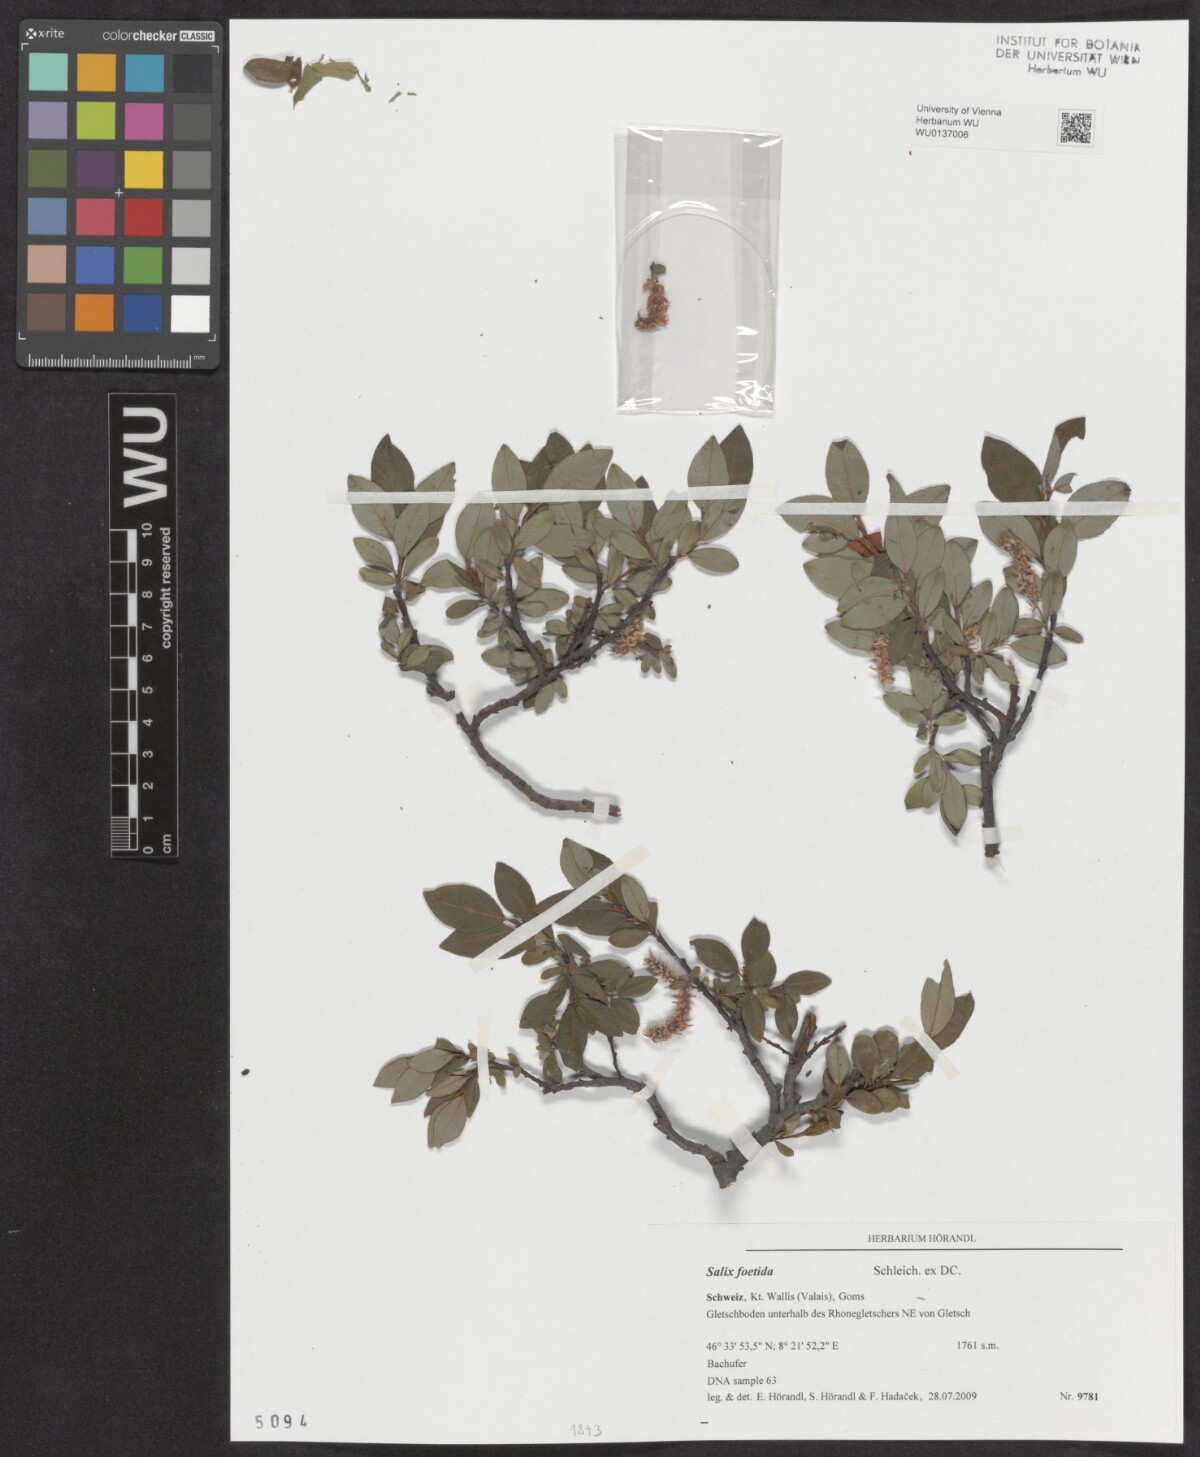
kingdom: Plantae
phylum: Tracheophyta
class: Magnoliopsida
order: Malpighiales
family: Salicaceae
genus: Salix
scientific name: Salix foetida
